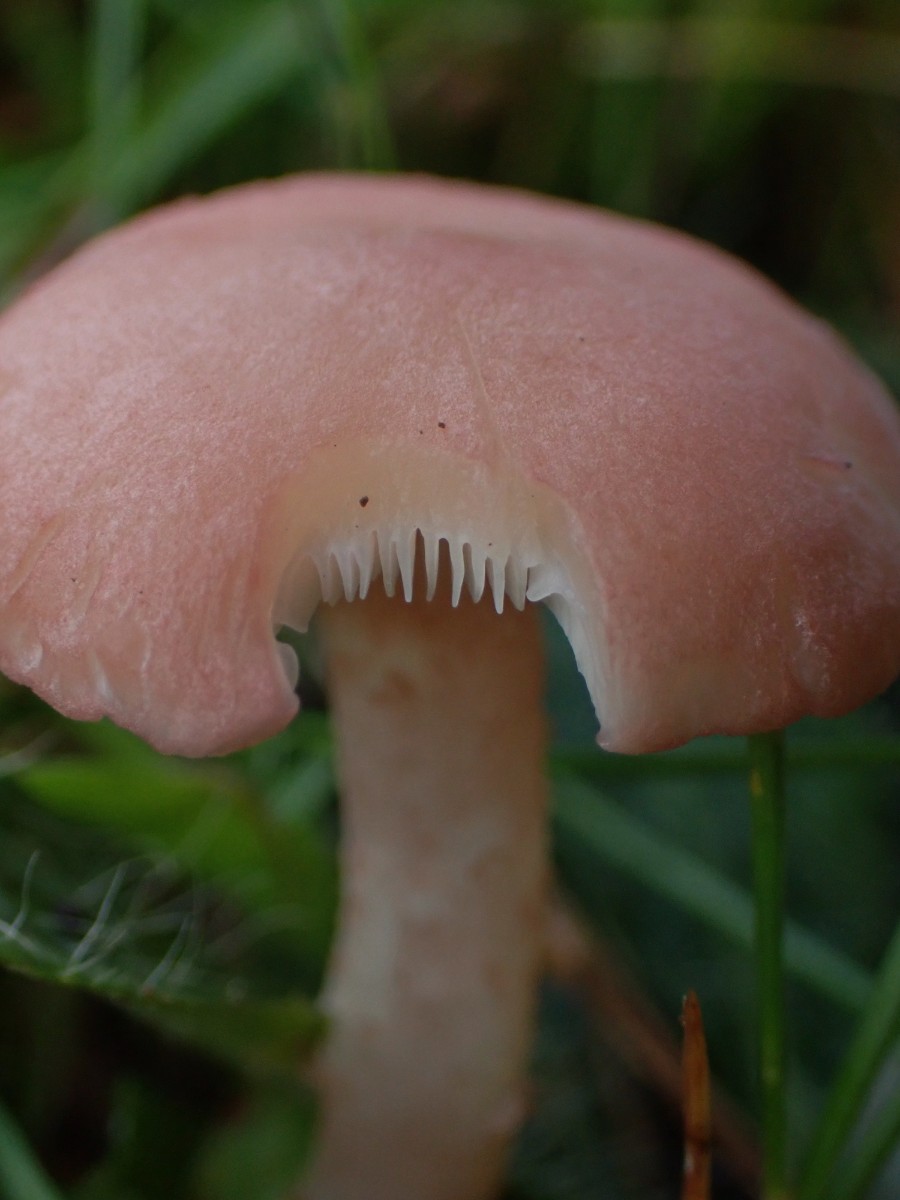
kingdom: Fungi
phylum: Basidiomycota
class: Agaricomycetes
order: Agaricales
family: Lyophyllaceae
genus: Calocybe
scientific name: Calocybe carnea
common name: rosa fagerhat
